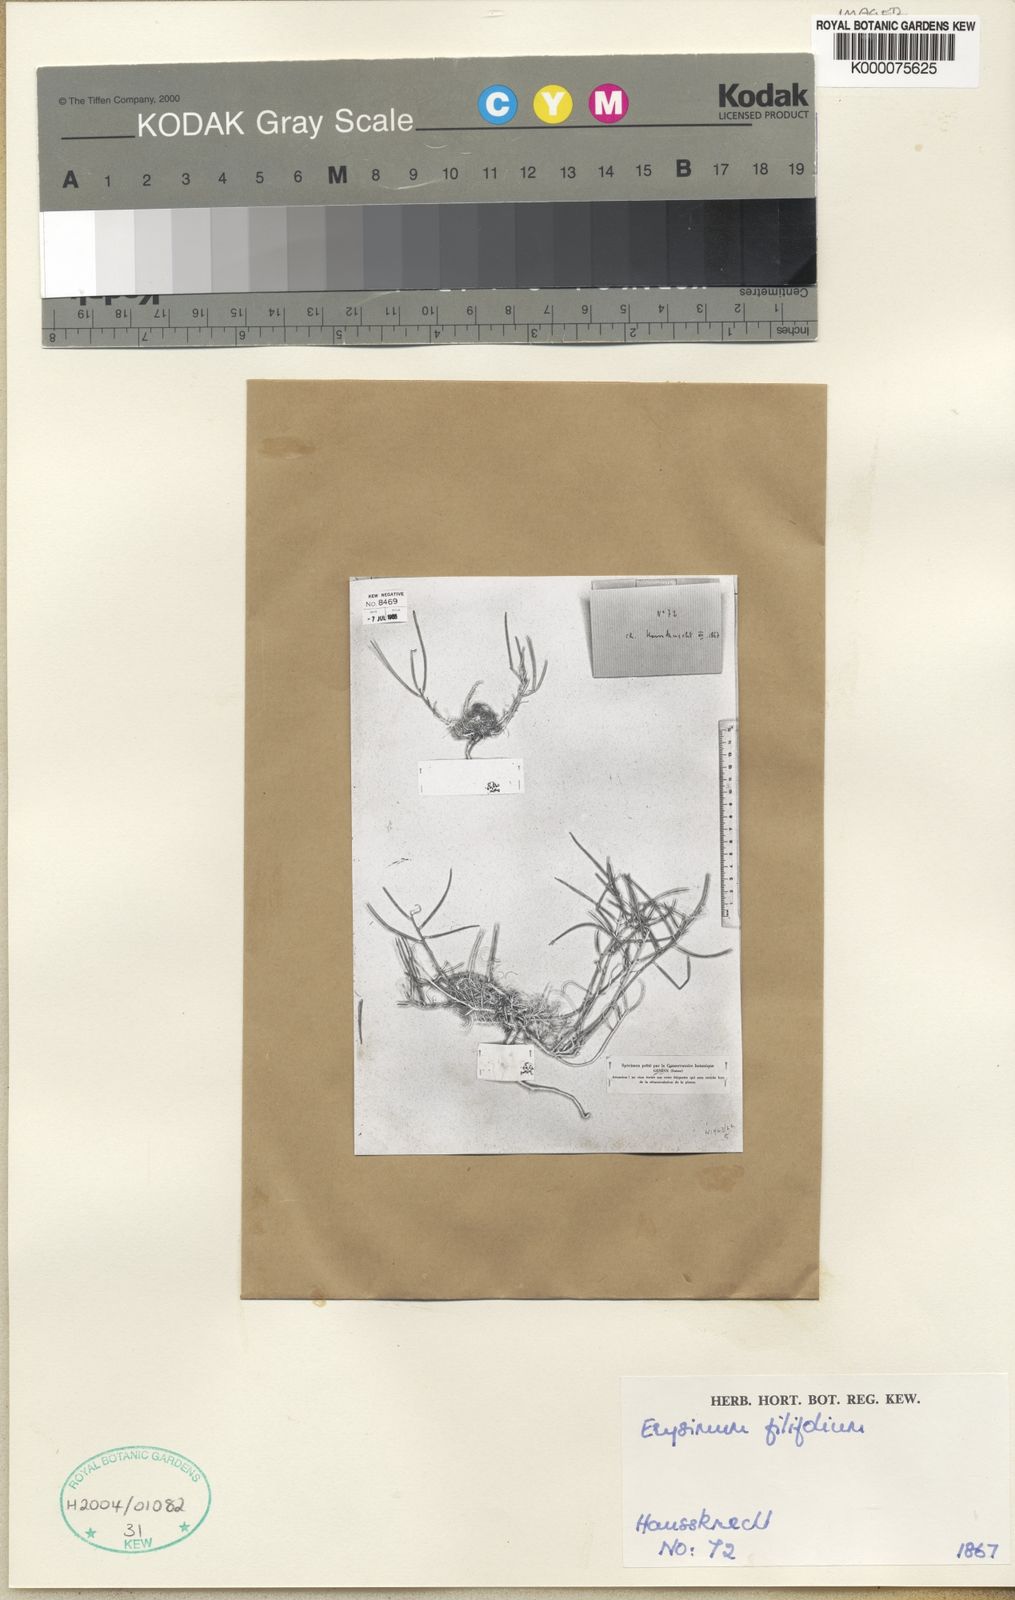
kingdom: Plantae
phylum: Tracheophyta
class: Magnoliopsida
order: Brassicales
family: Brassicaceae
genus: Erysimum
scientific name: Erysimum boissieri
